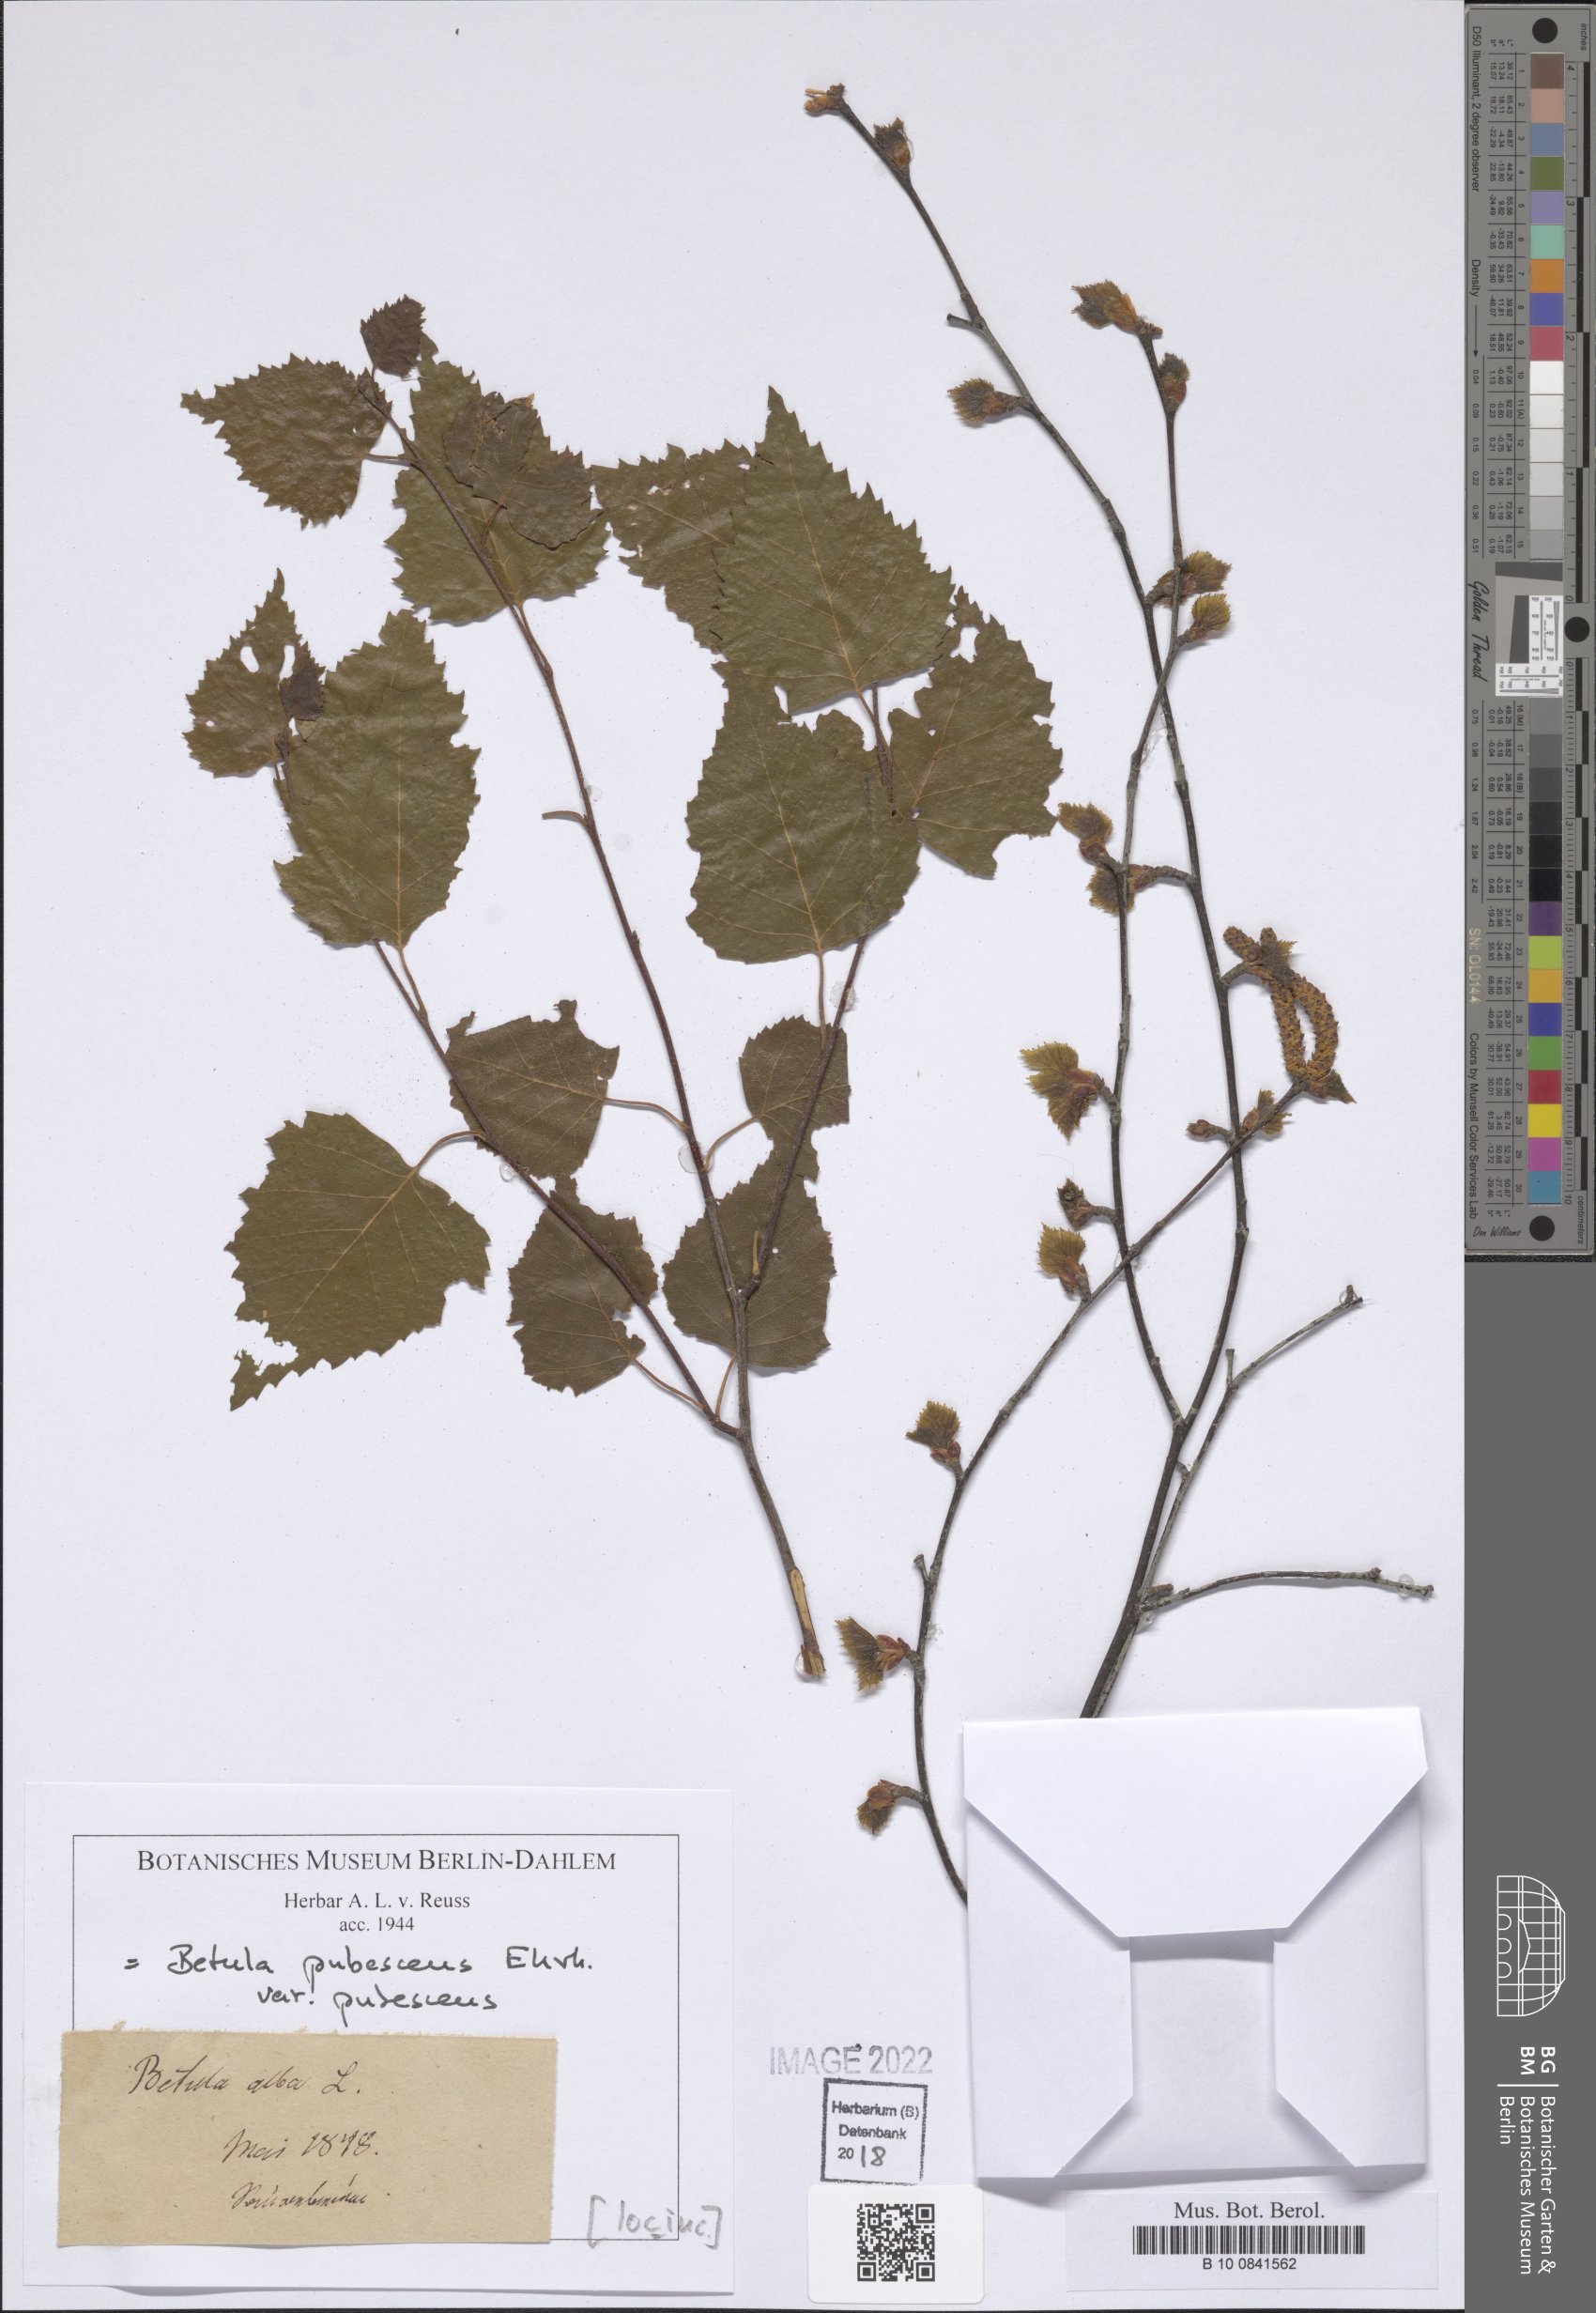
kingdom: Plantae
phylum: Tracheophyta
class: Magnoliopsida
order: Fagales
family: Betulaceae
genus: Betula
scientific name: Betula pubescens
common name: Downy birch
